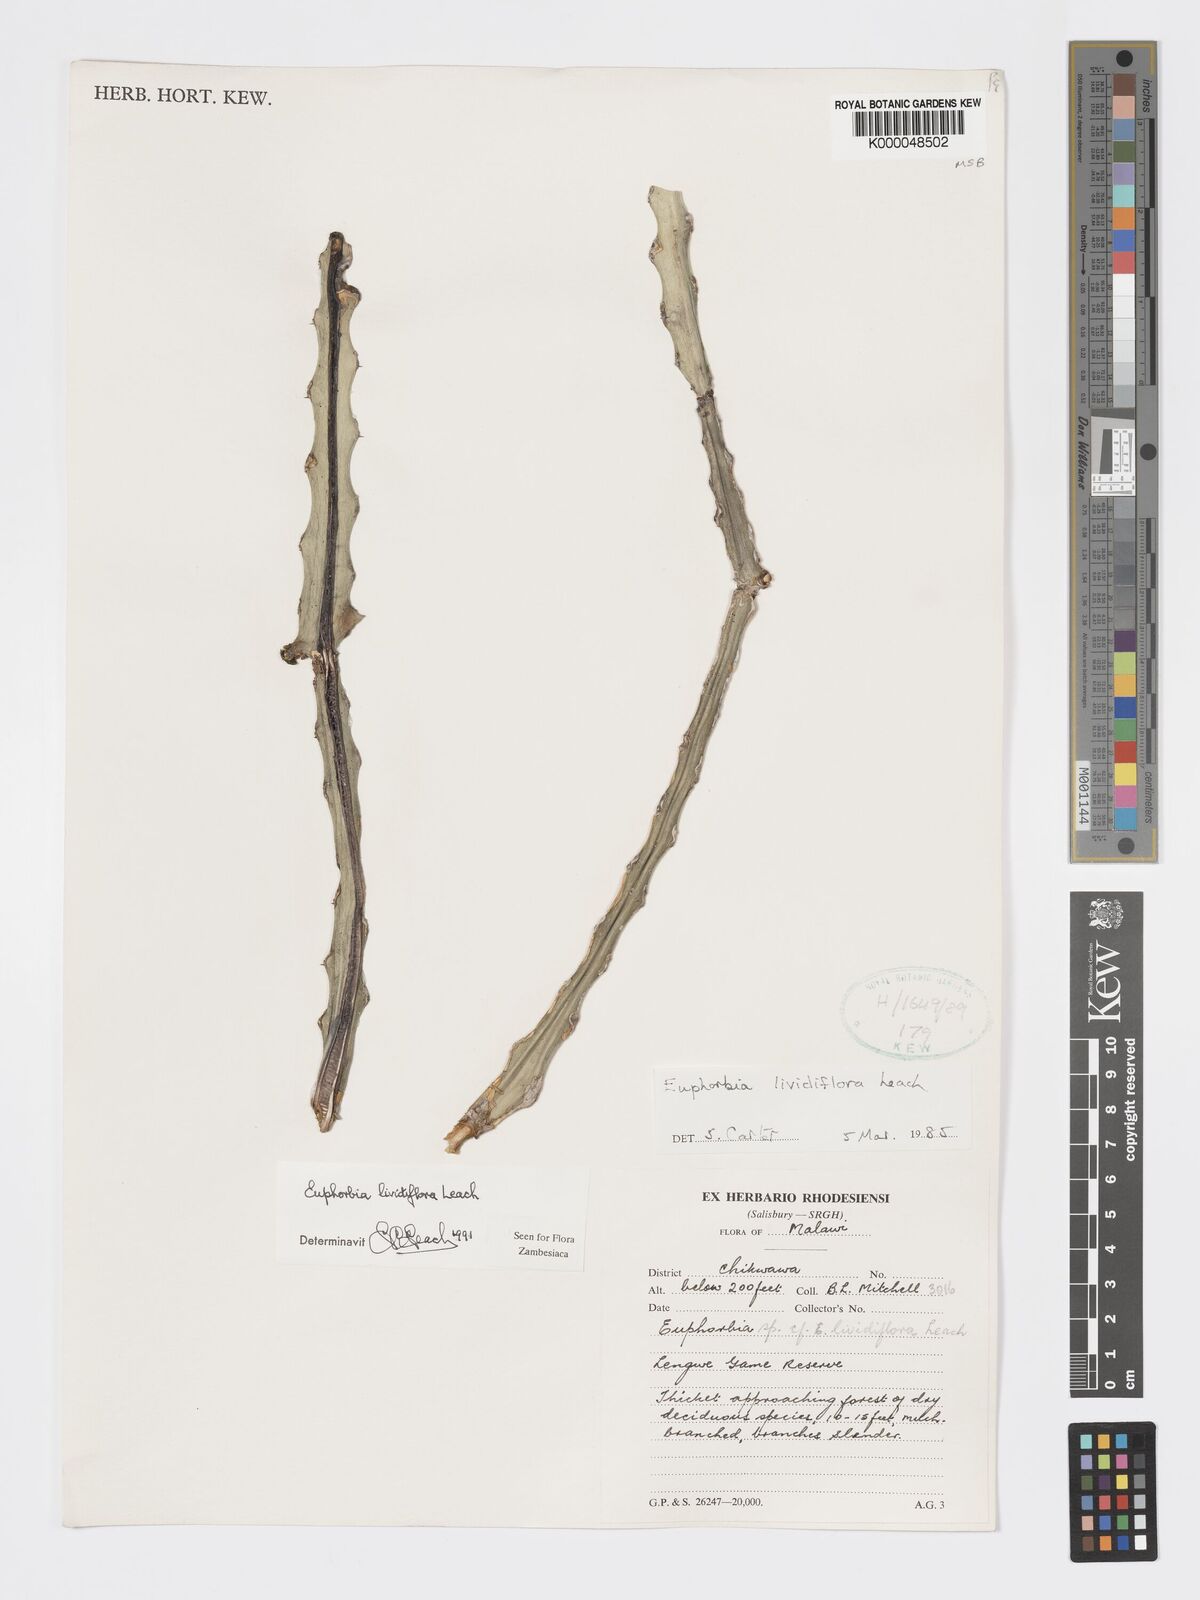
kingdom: Plantae
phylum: Tracheophyta
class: Magnoliopsida
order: Malpighiales
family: Euphorbiaceae
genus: Euphorbia
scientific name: Euphorbia lividiflora
